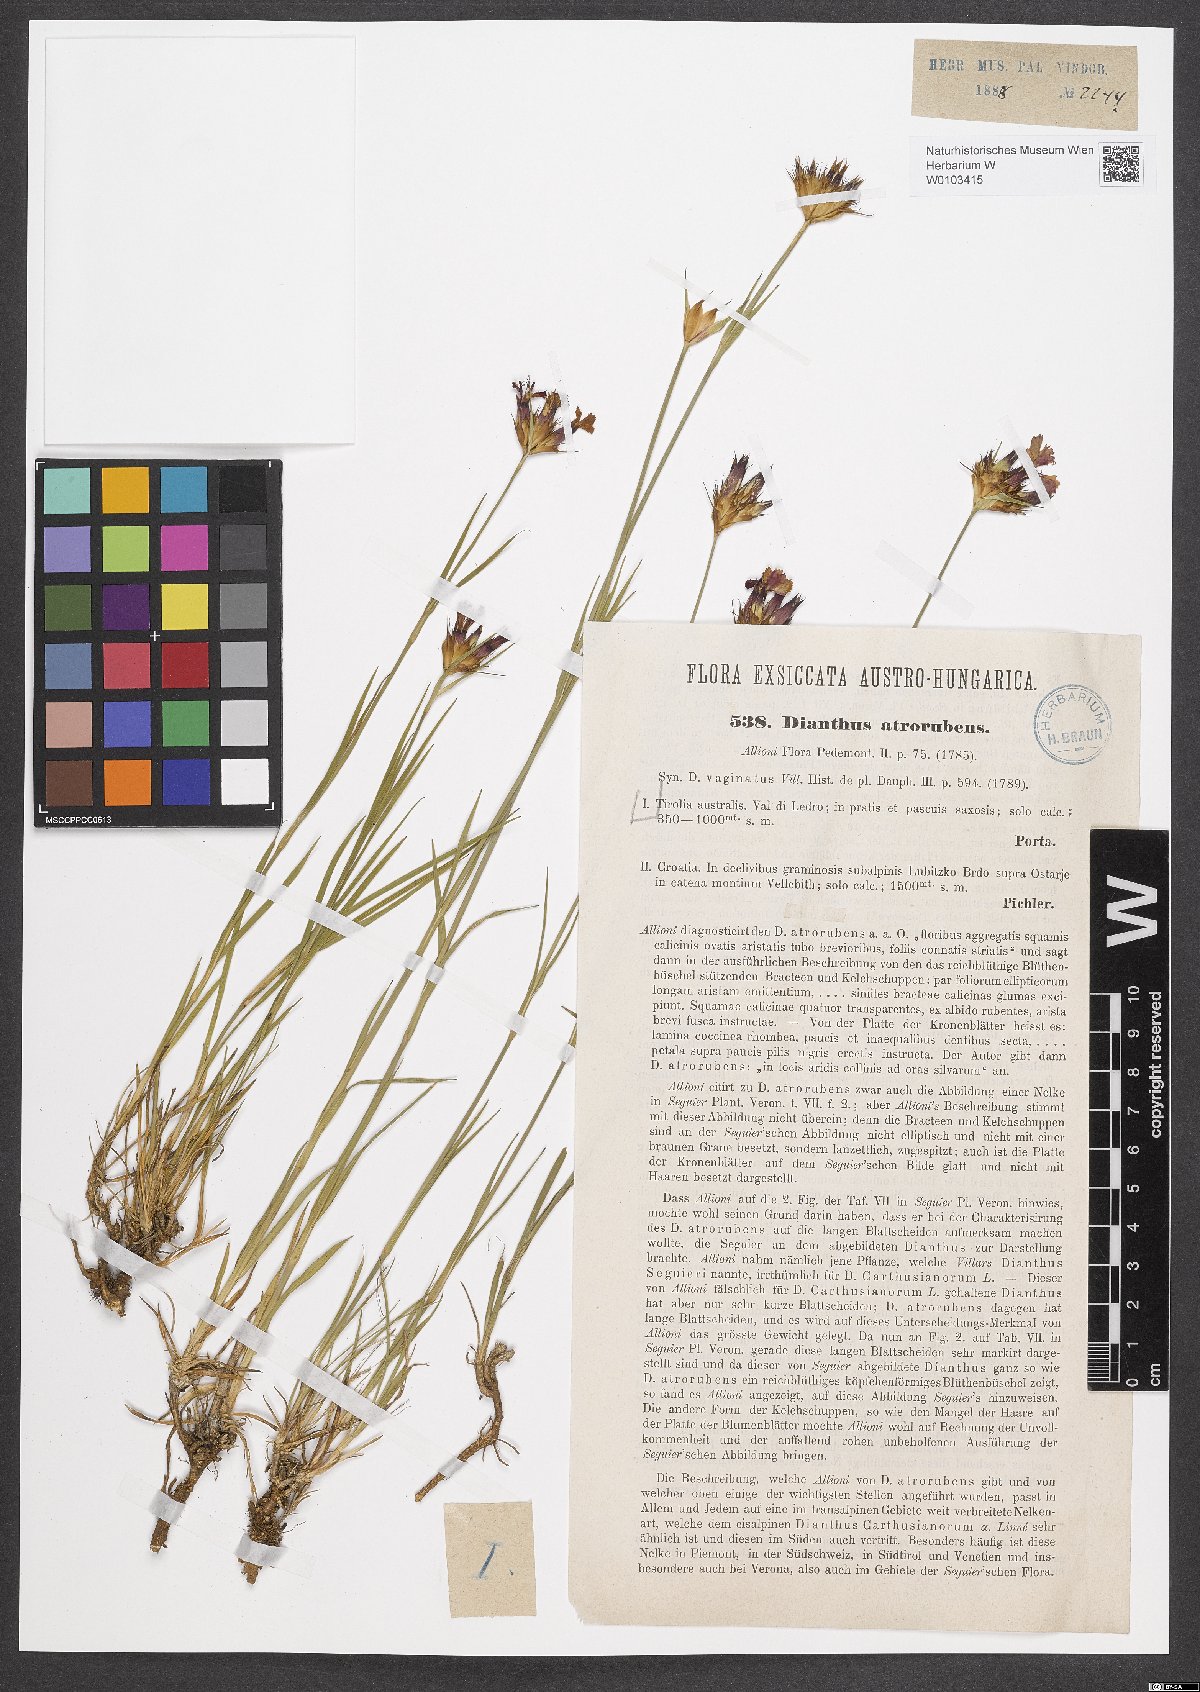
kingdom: Plantae
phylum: Tracheophyta
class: Magnoliopsida
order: Caryophyllales
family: Caryophyllaceae
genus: Dianthus
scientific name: Dianthus carthusianorum
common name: Carthusian pink
